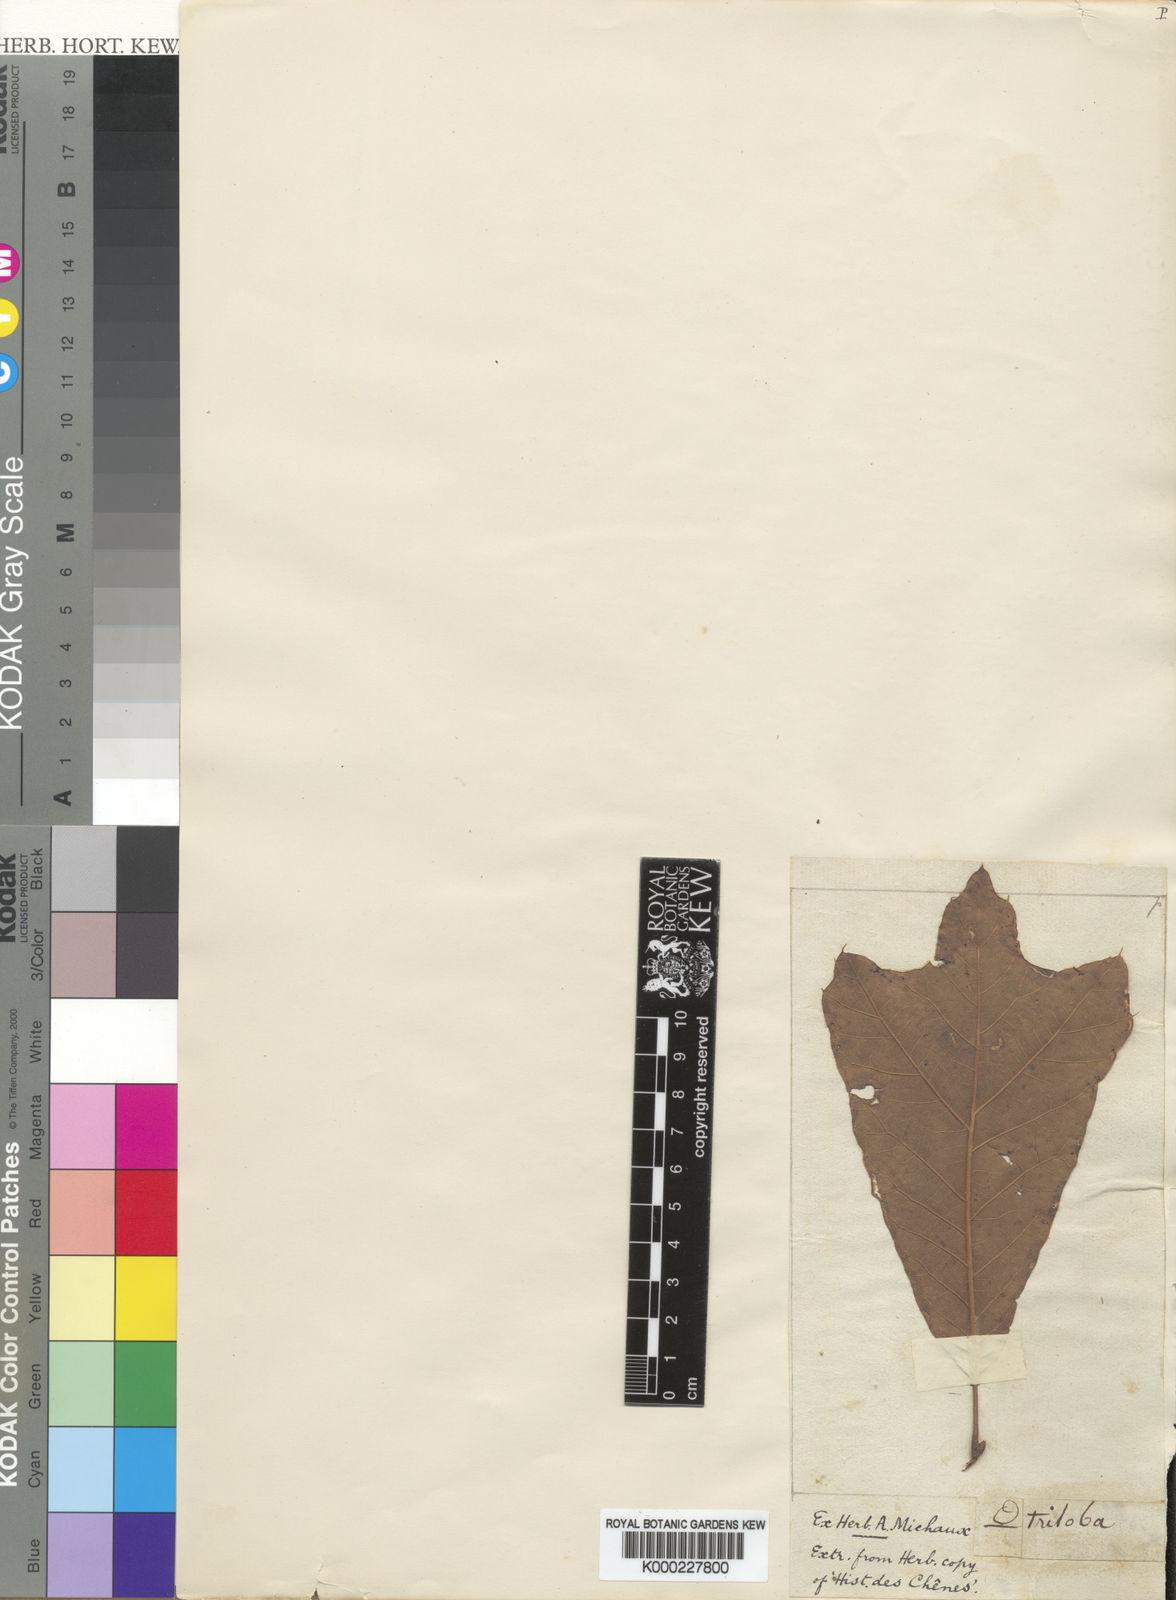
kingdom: Plantae
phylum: Tracheophyta
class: Magnoliopsida
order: Fagales
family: Fagaceae
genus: Quercus
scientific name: Quercus falcata
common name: Southern red oak
